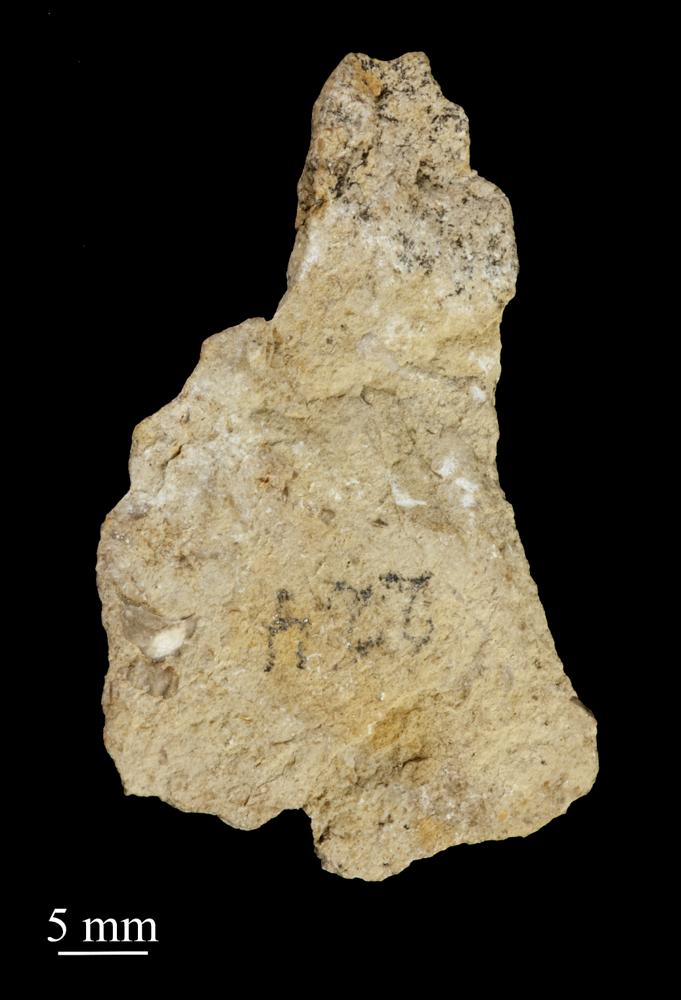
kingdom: Animalia
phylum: Mollusca
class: Gastropoda
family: Bucaniidae
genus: Bucania
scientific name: Bucania Bellerophon radiata
